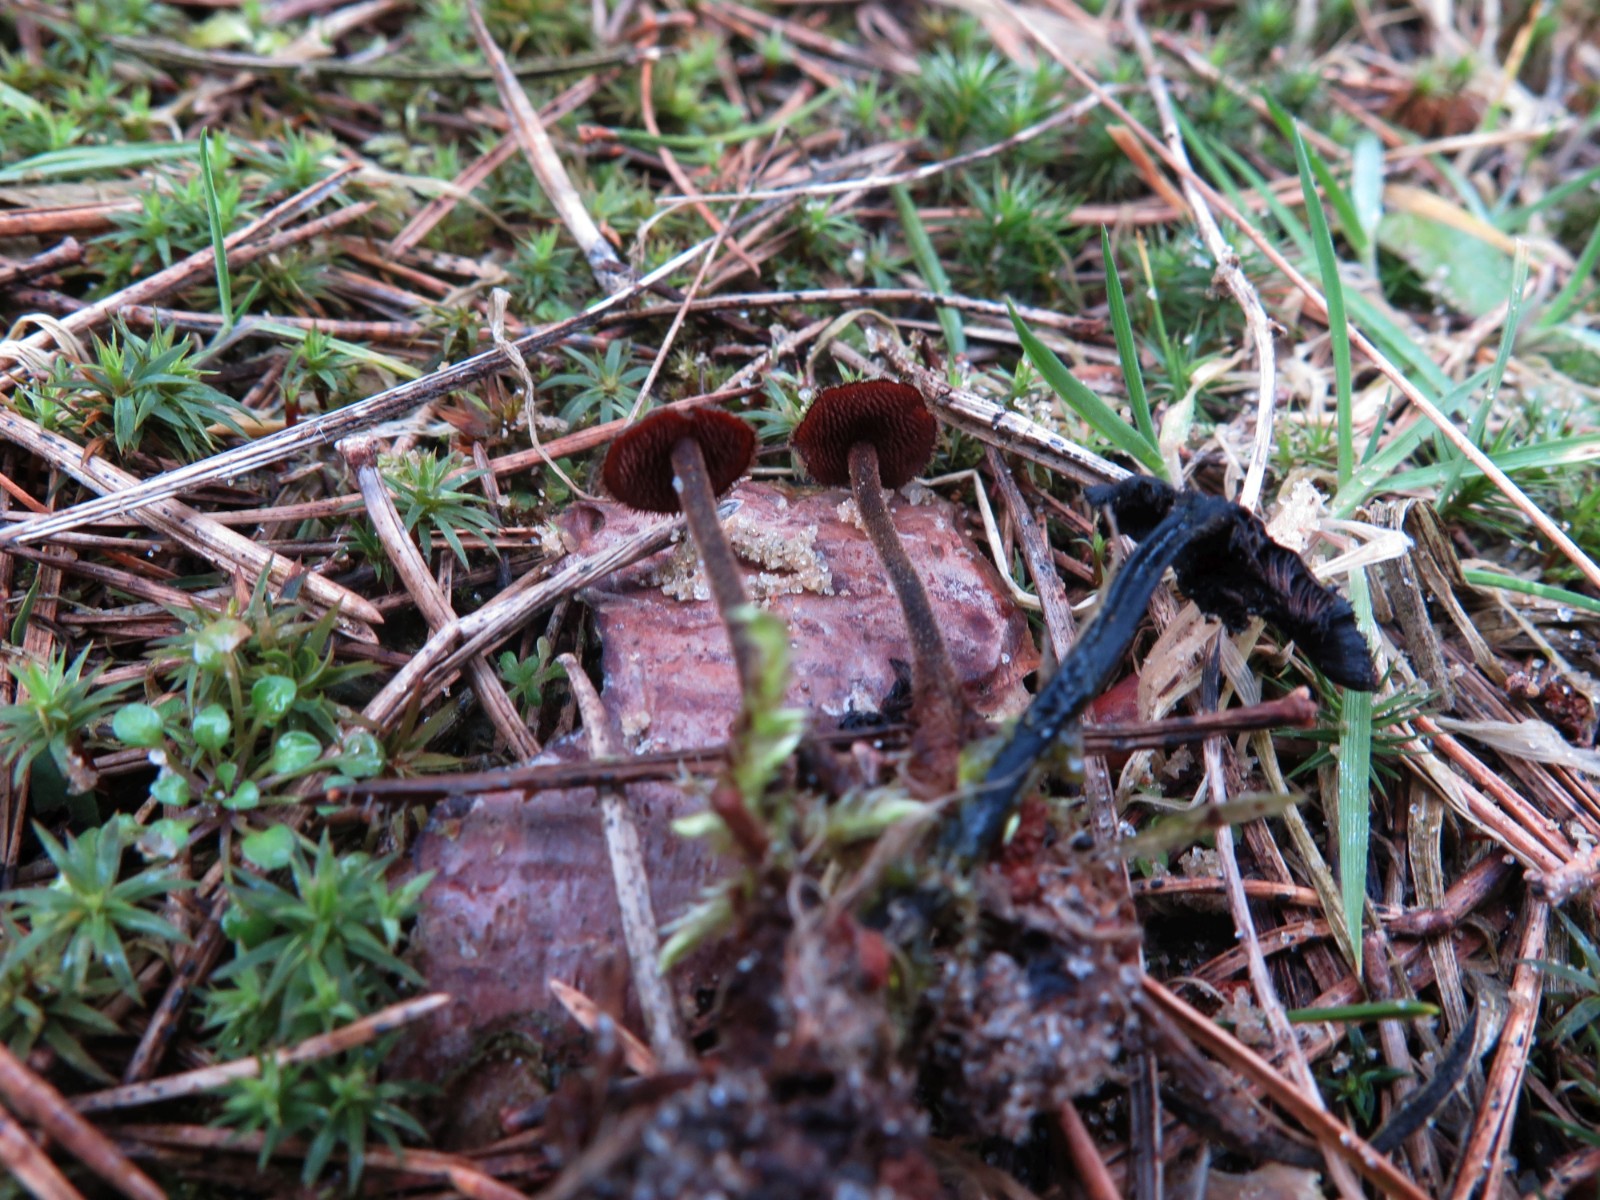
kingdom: Fungi
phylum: Basidiomycota
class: Agaricomycetes
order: Russulales
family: Auriscalpiaceae
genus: Auriscalpium
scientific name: Auriscalpium vulgare
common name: koglepigsvamp
